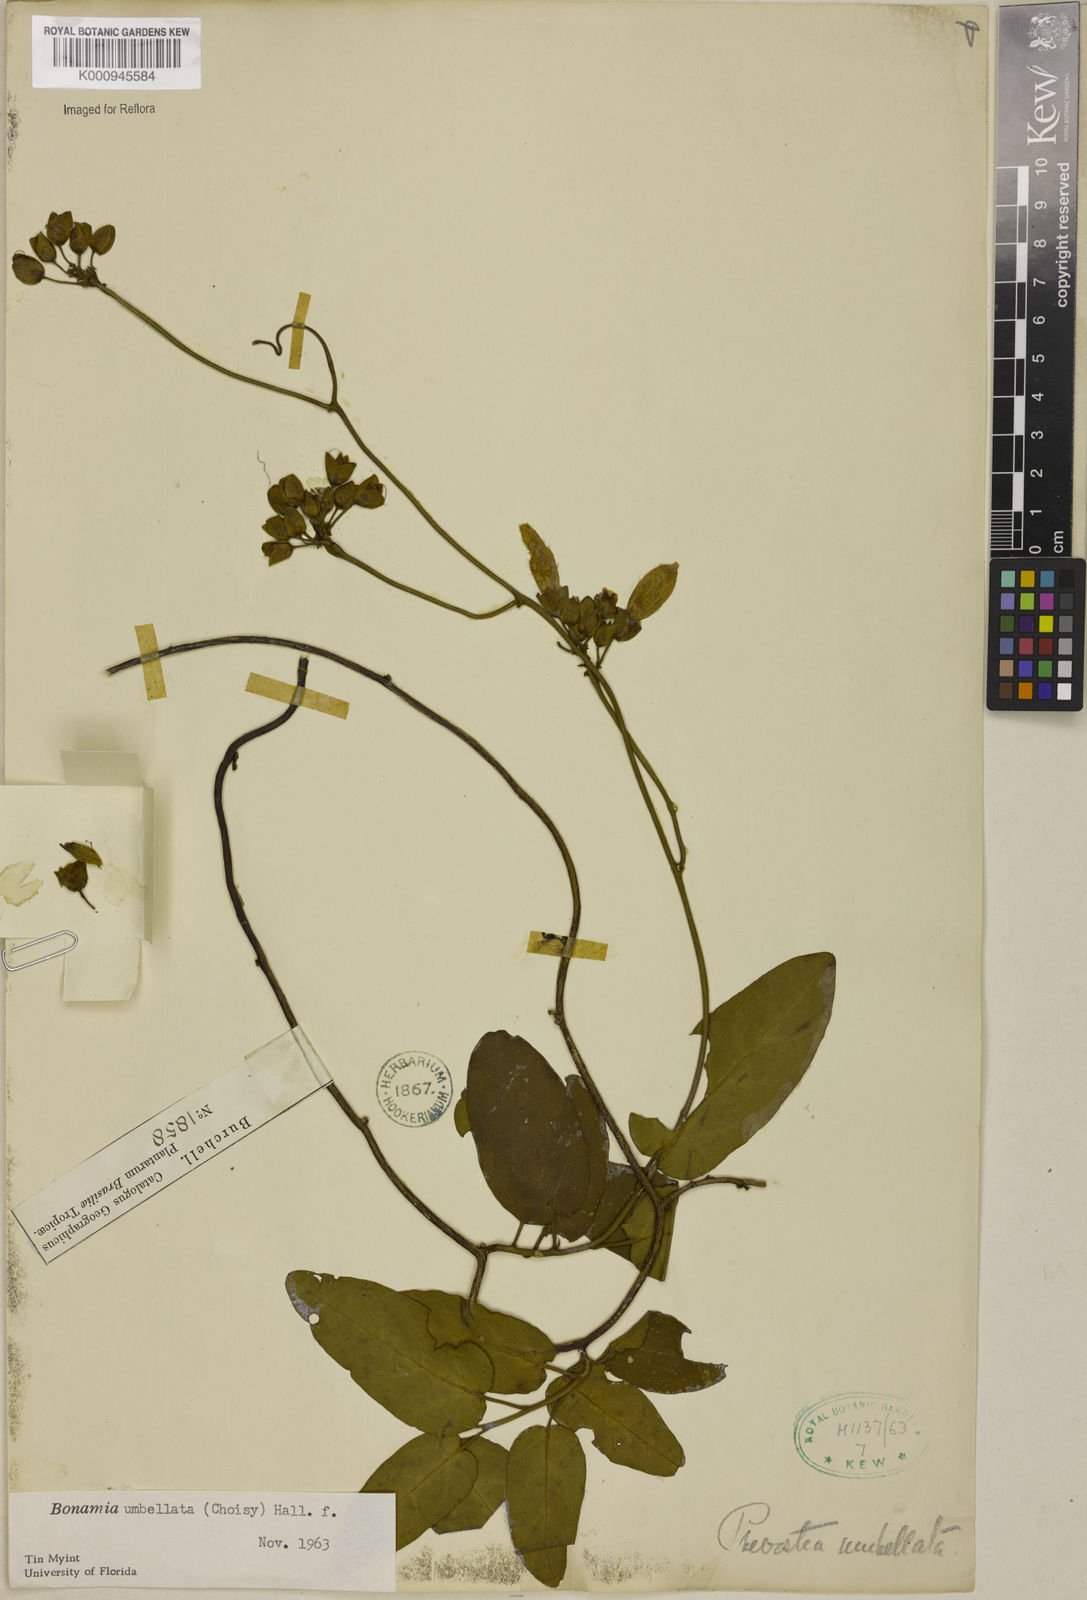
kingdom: Plantae
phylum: Tracheophyta
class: Magnoliopsida
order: Solanales
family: Convolvulaceae
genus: Bonamia
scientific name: Bonamia umbellata
